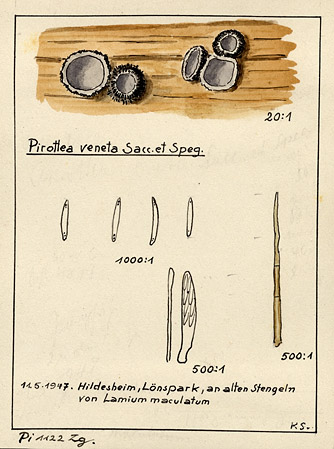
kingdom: Plantae
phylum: Tracheophyta
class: Magnoliopsida
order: Lamiales
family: Lamiaceae
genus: Lamium
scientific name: Lamium maculatum
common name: Spotted dead-nettle
